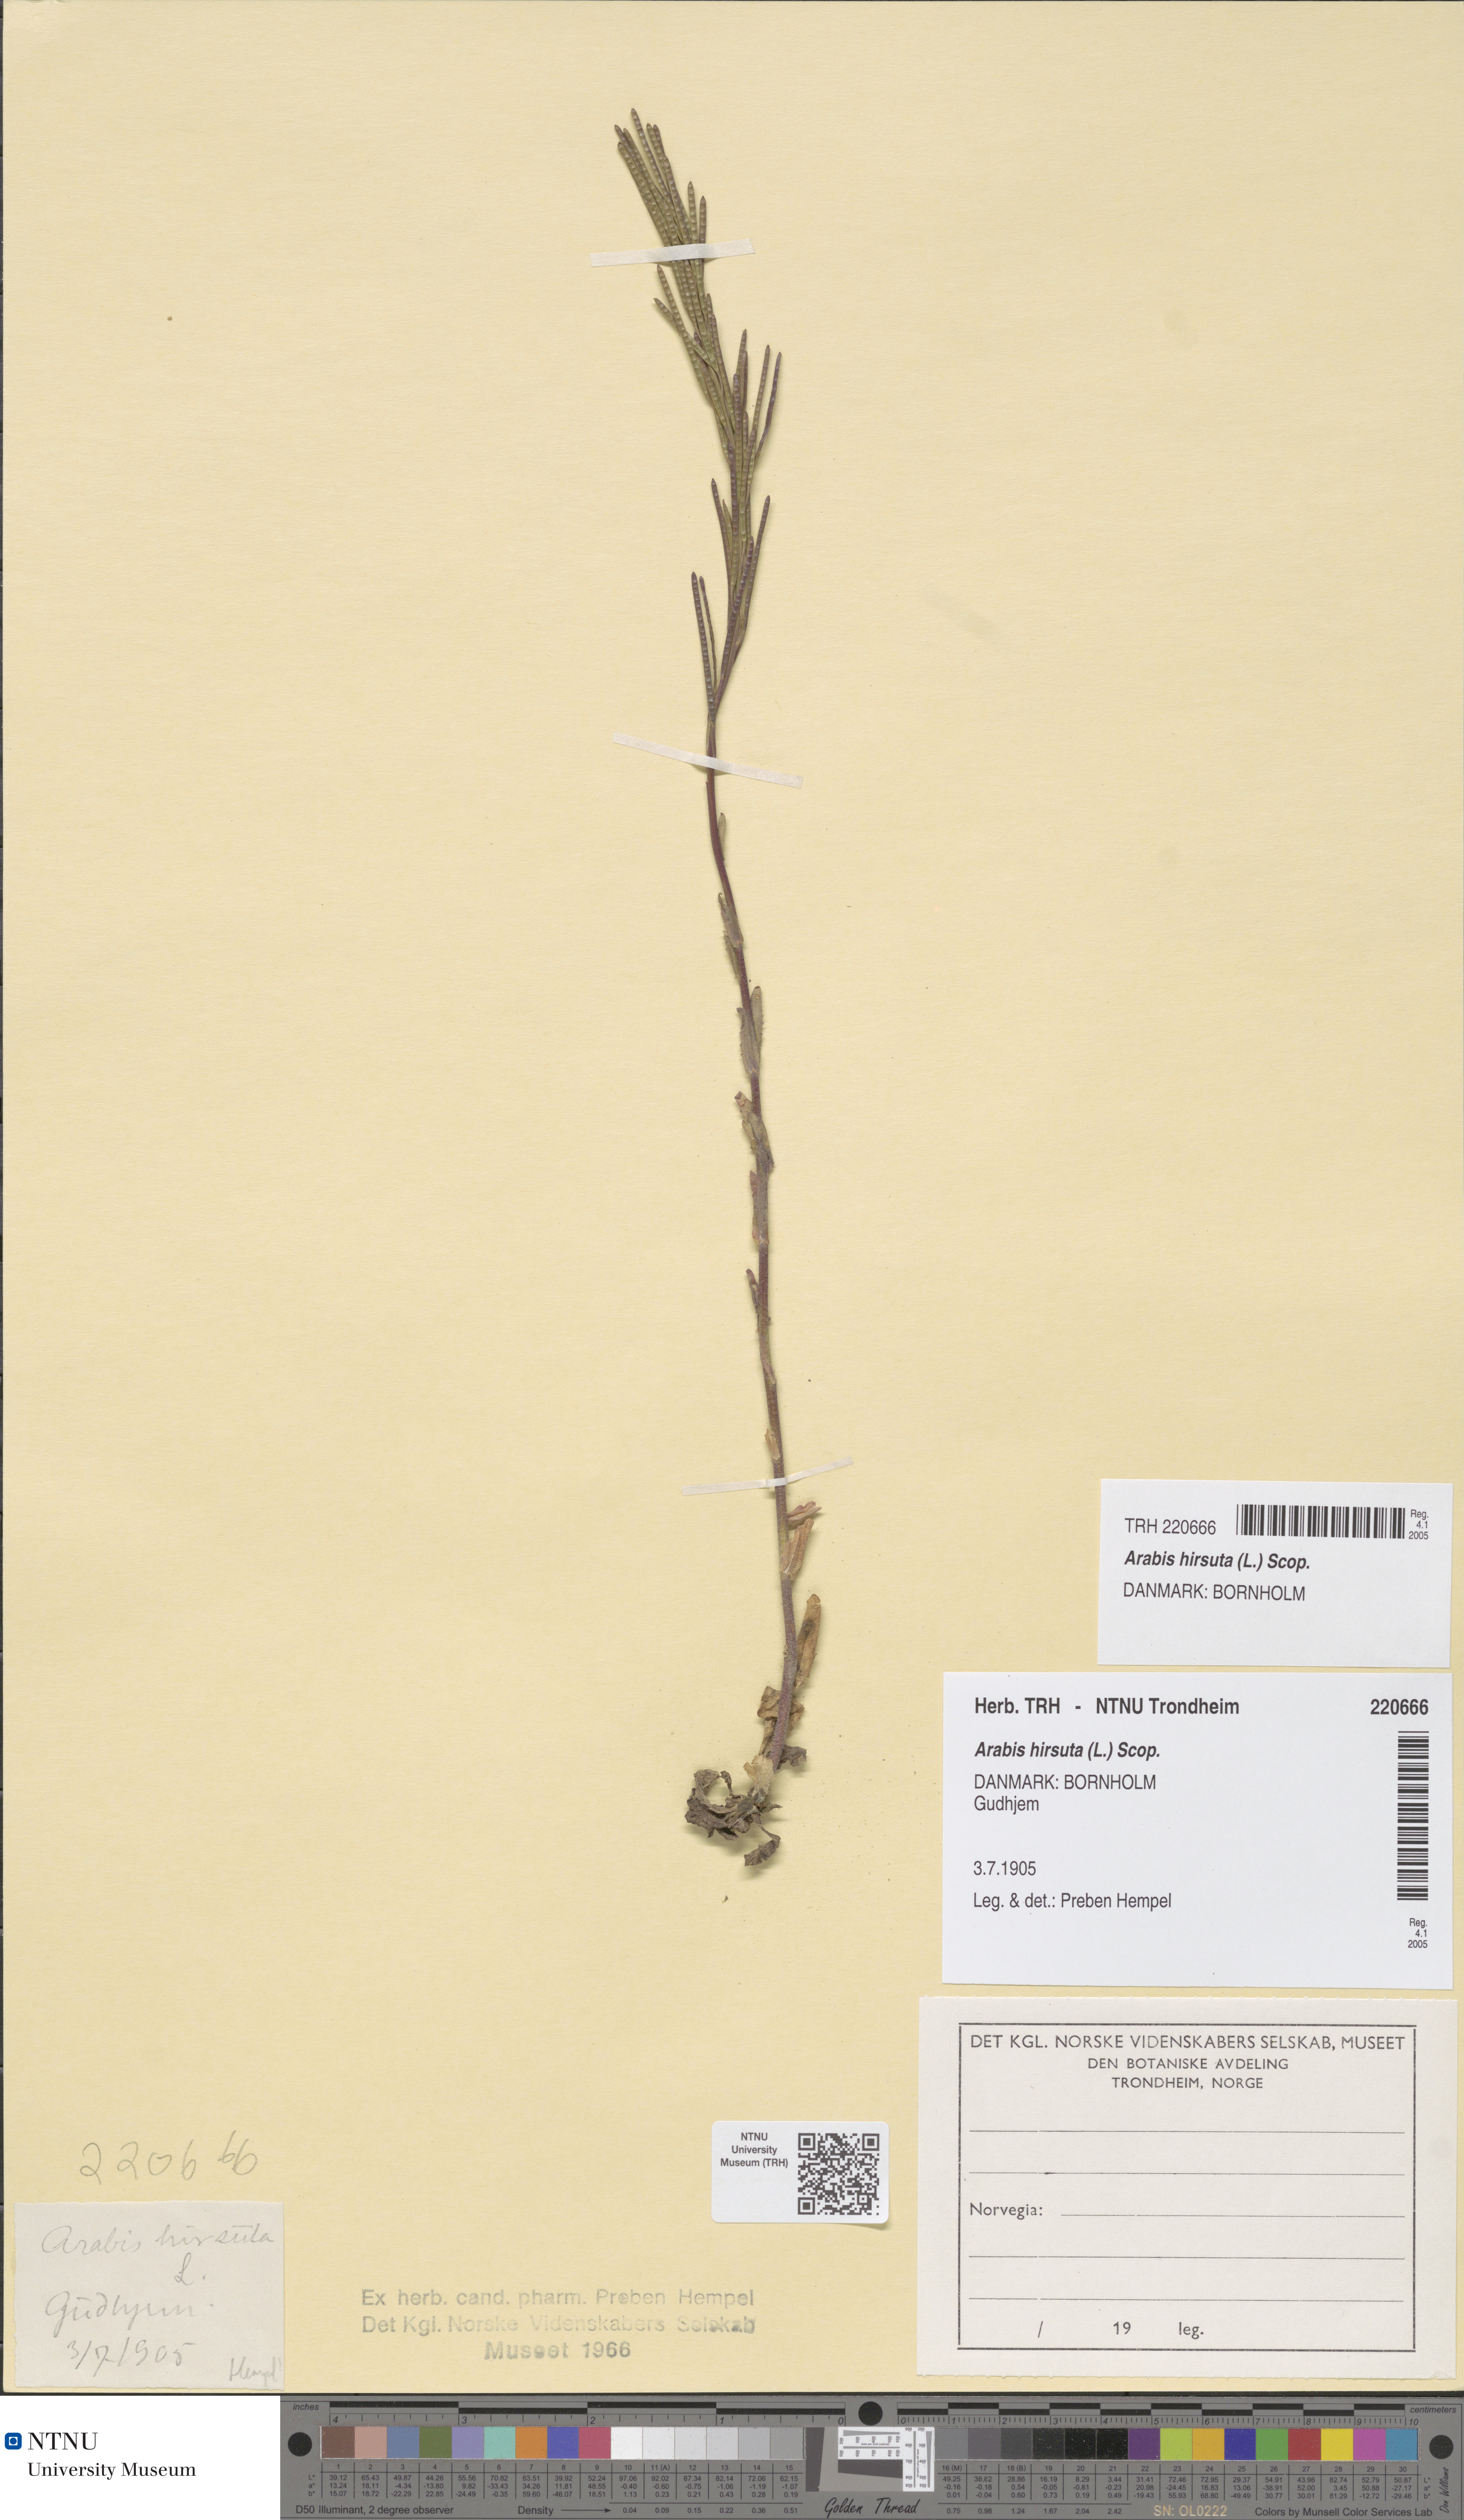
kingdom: Plantae
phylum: Tracheophyta
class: Magnoliopsida
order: Brassicales
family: Brassicaceae
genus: Arabis
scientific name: Arabis hirsuta
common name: Hairy rock-cress
